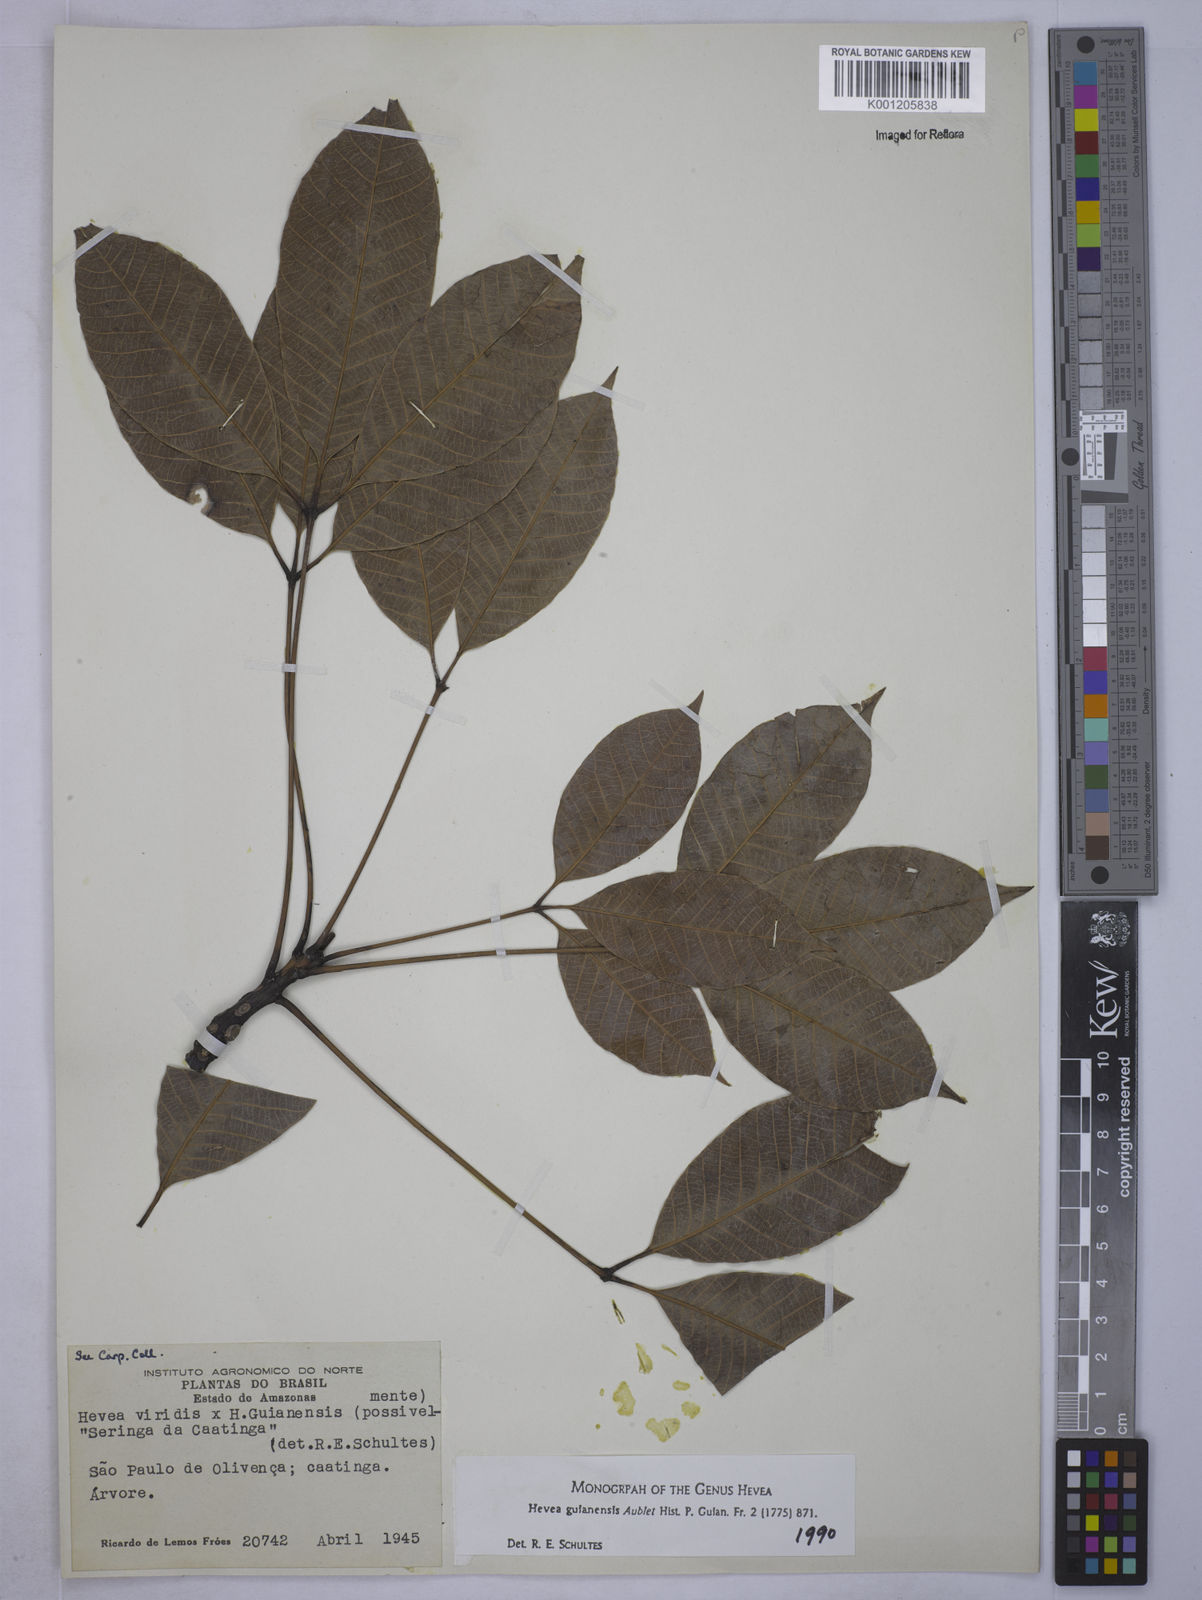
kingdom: Plantae
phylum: Tracheophyta
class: Magnoliopsida
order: Malpighiales
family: Euphorbiaceae
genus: Hevea
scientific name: Hevea
